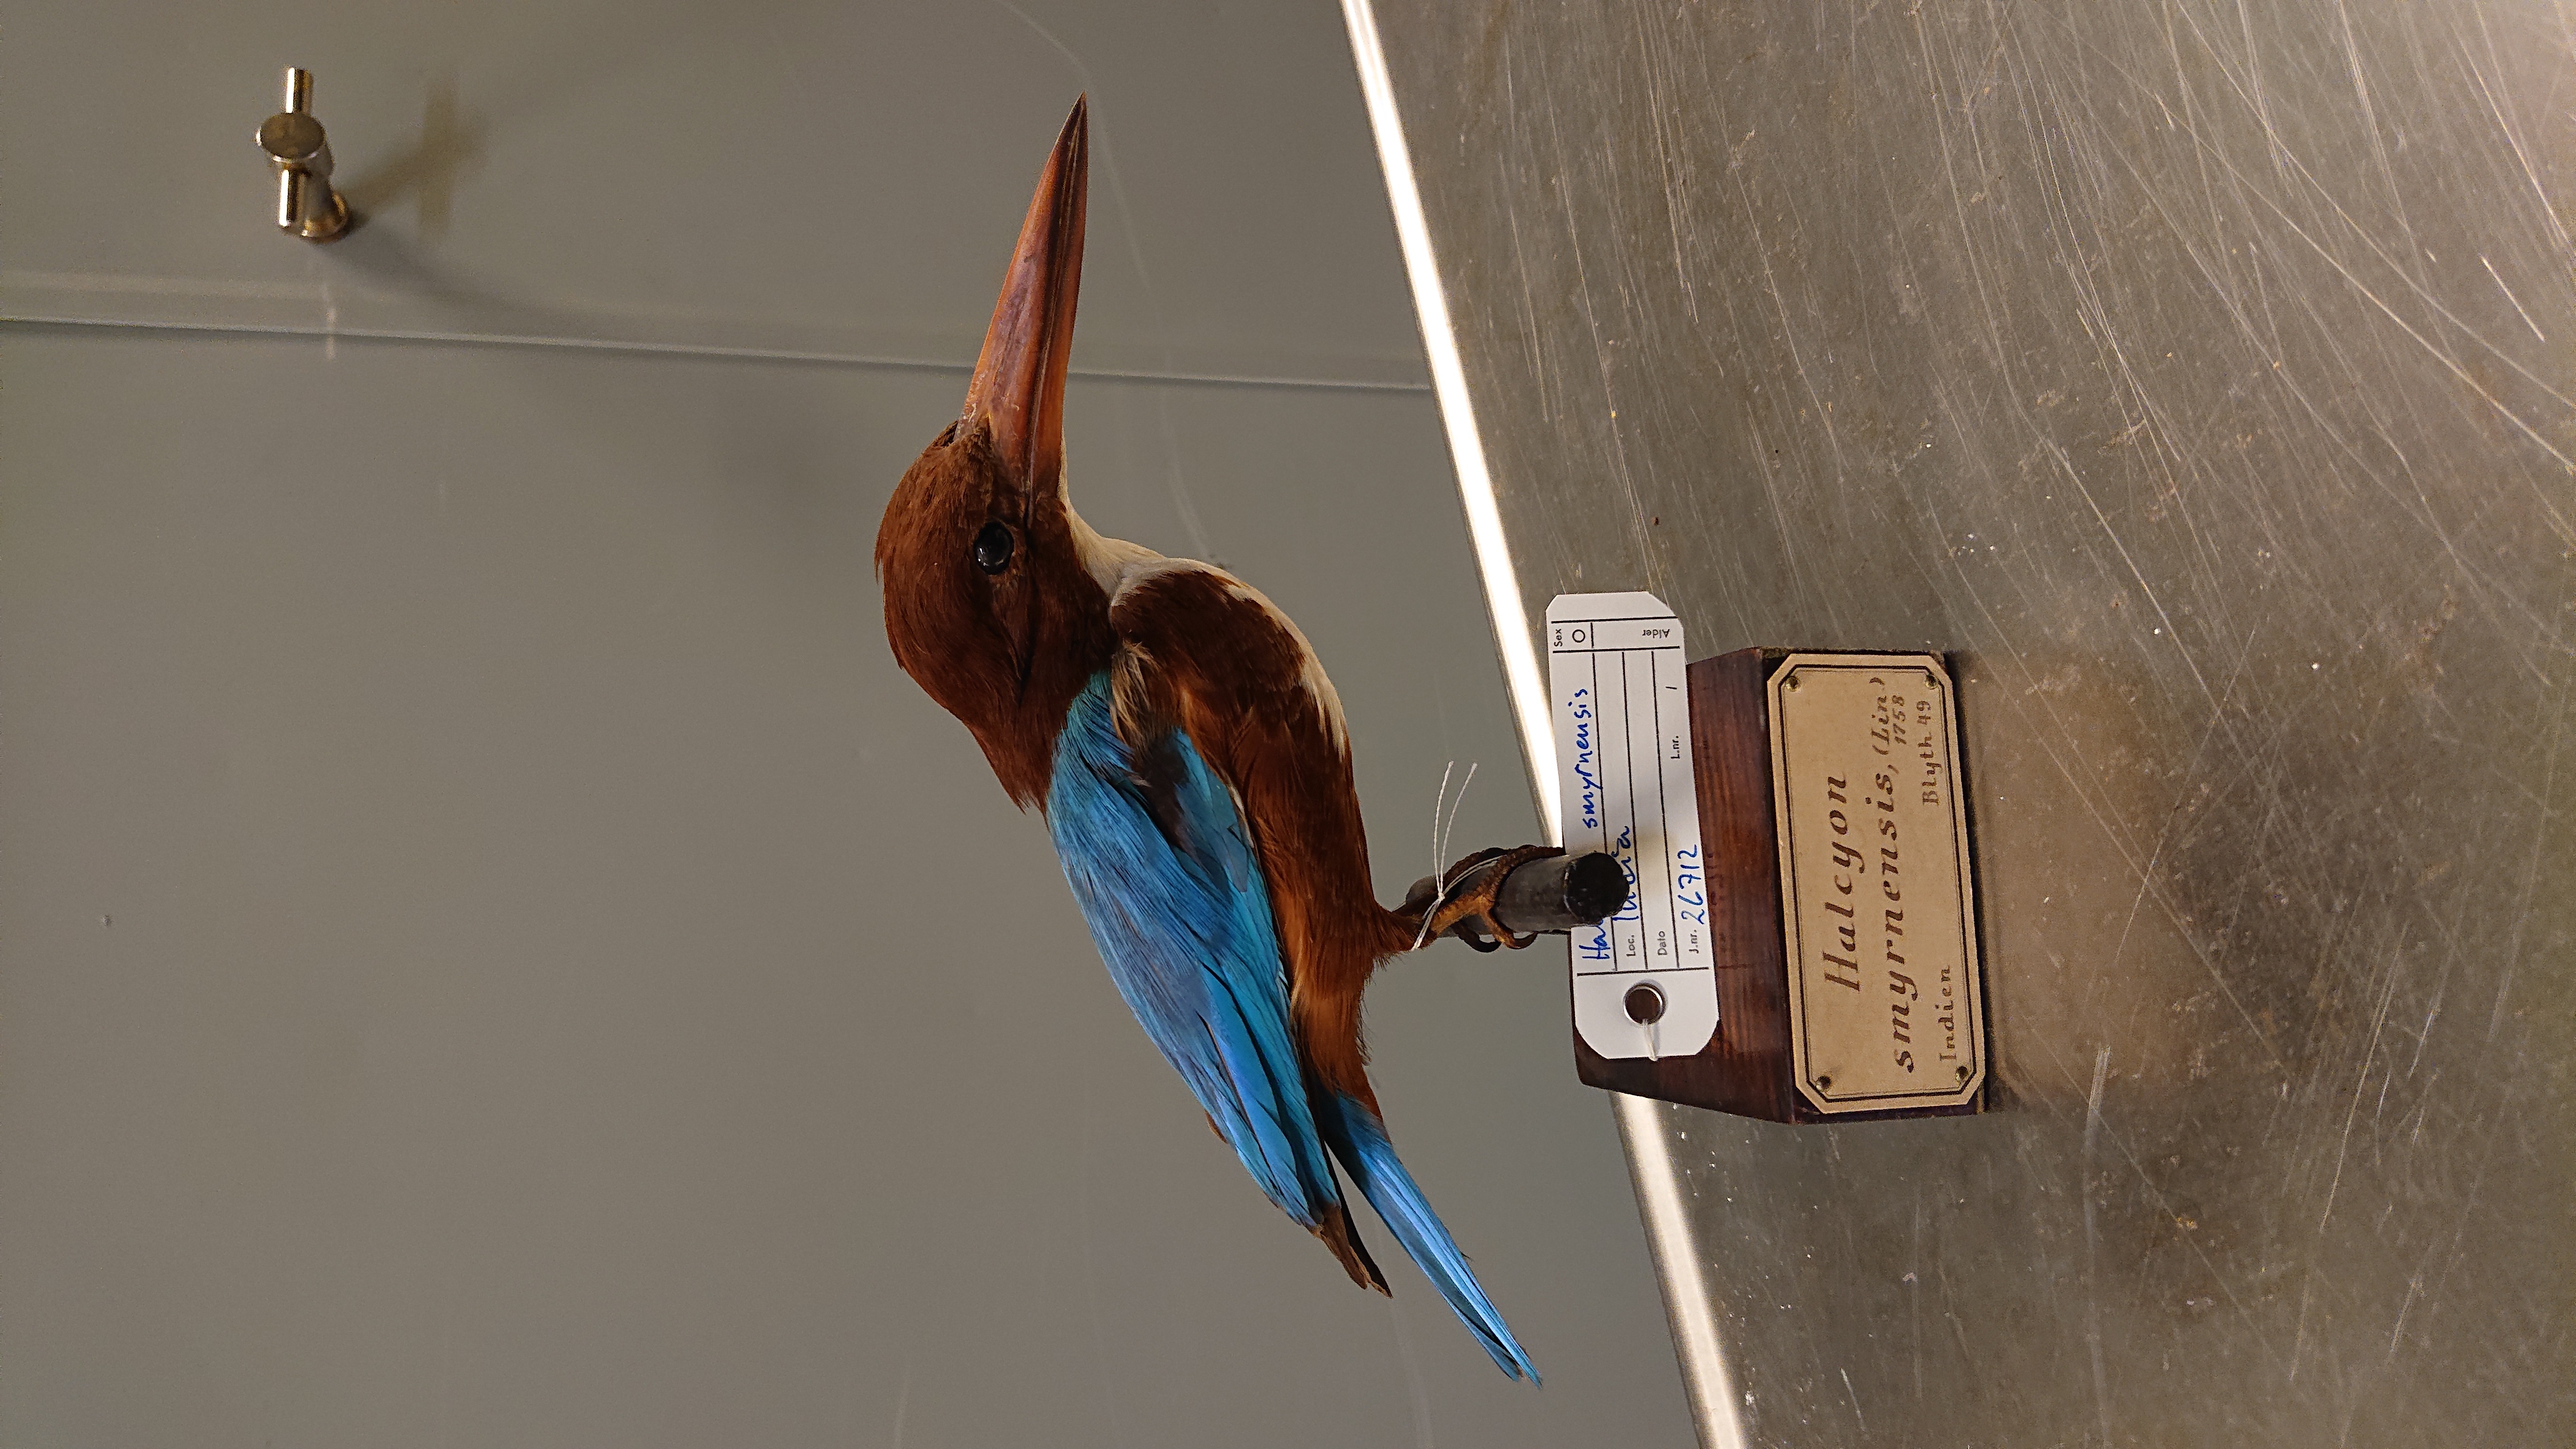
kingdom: Animalia
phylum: Chordata
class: Aves
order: Coraciiformes
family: Alcedinidae
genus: Halcyon
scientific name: Halcyon smyrnensis
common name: White-throated kingfisher
